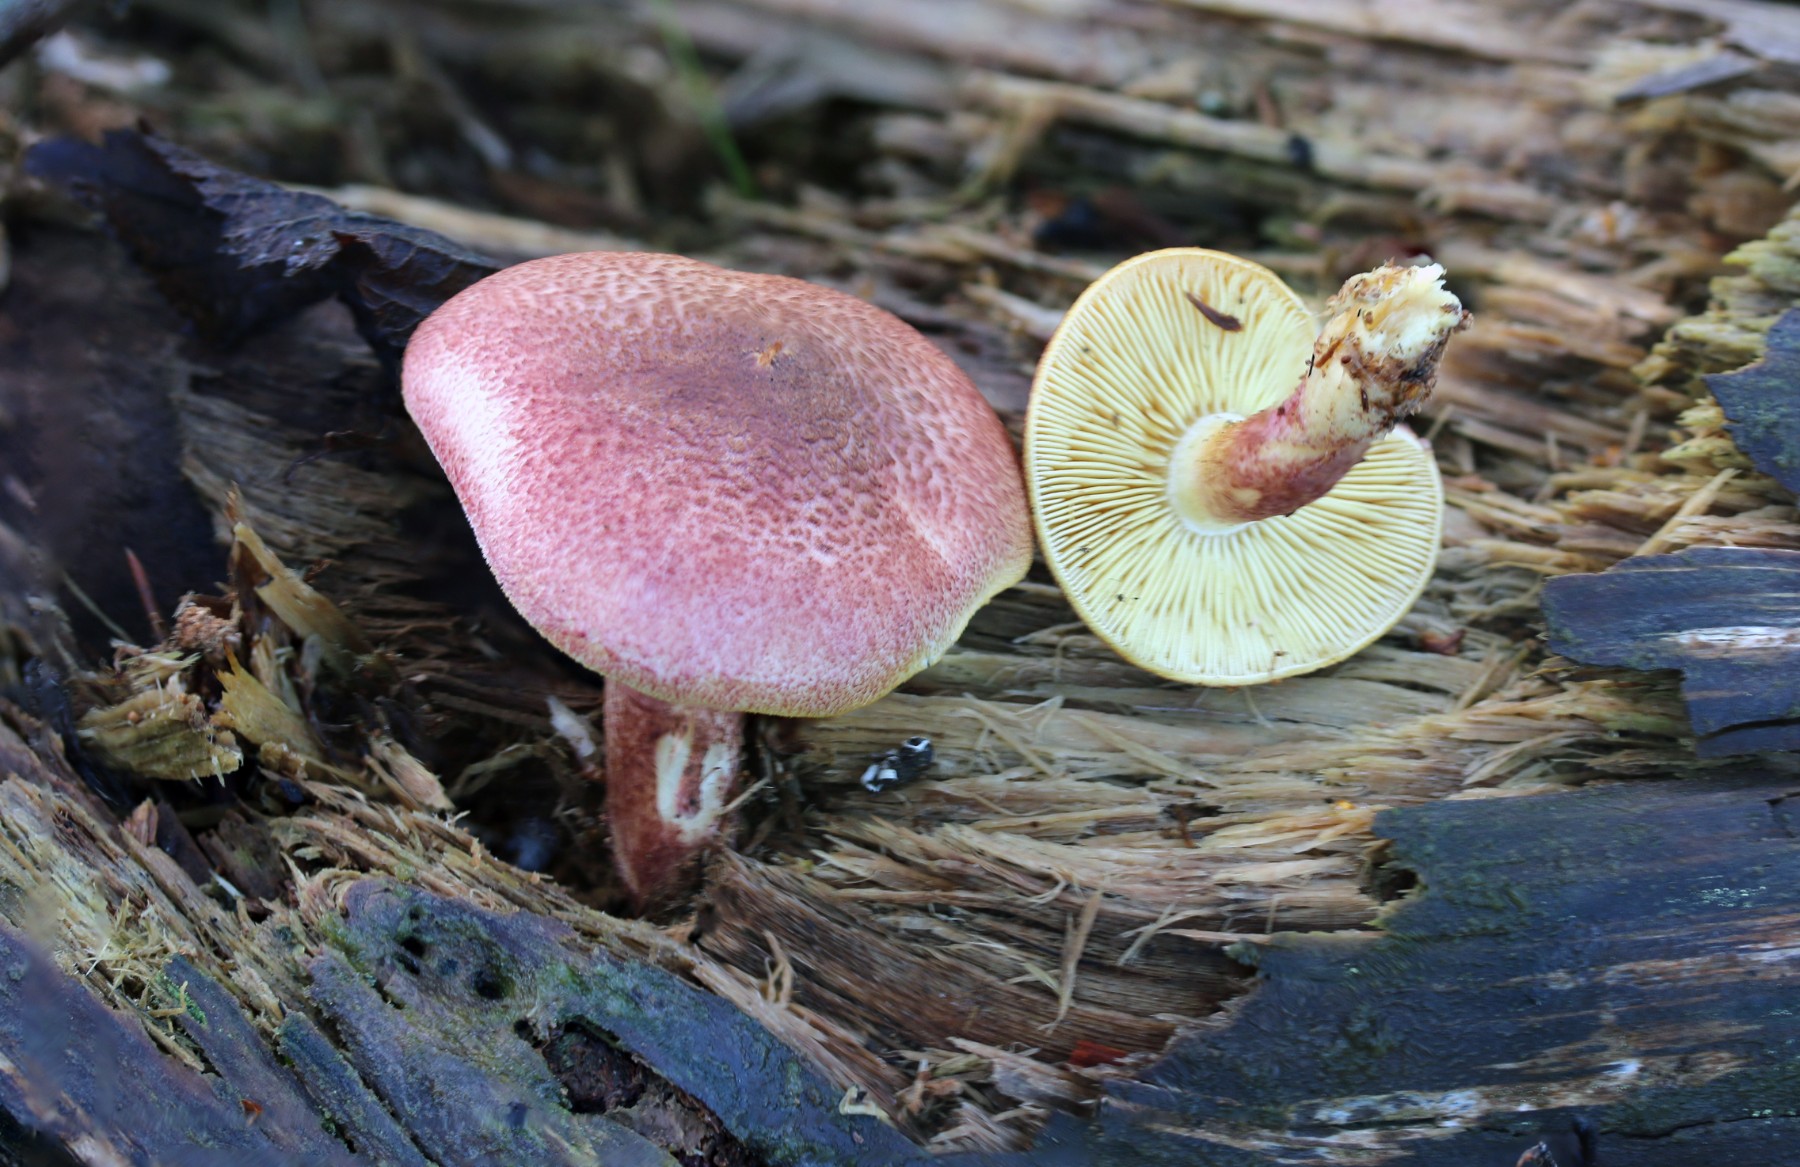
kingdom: Fungi
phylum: Basidiomycota
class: Agaricomycetes
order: Agaricales
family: Tricholomataceae
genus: Tricholomopsis
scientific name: Tricholomopsis rutilans
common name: purpur-væbnerhat
